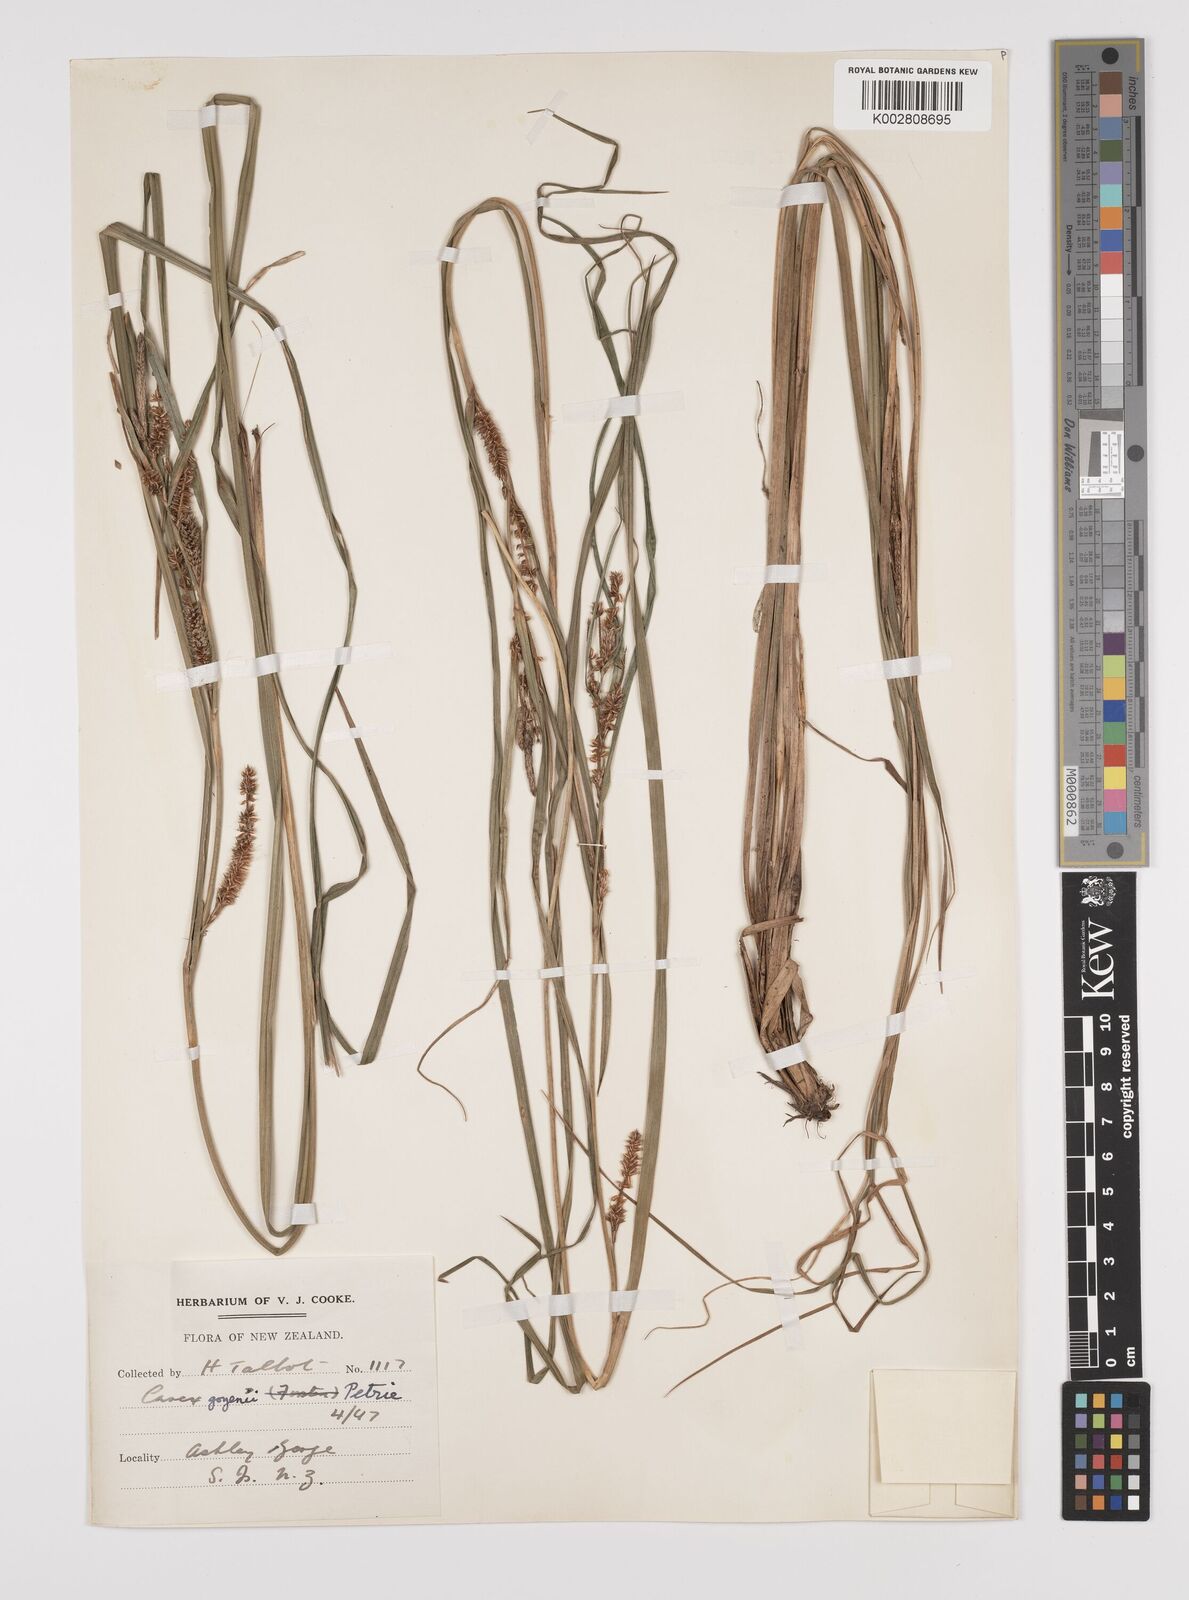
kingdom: Plantae
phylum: Tracheophyta
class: Liliopsida
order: Poales
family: Cyperaceae
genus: Carex
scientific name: Carex goyenii
